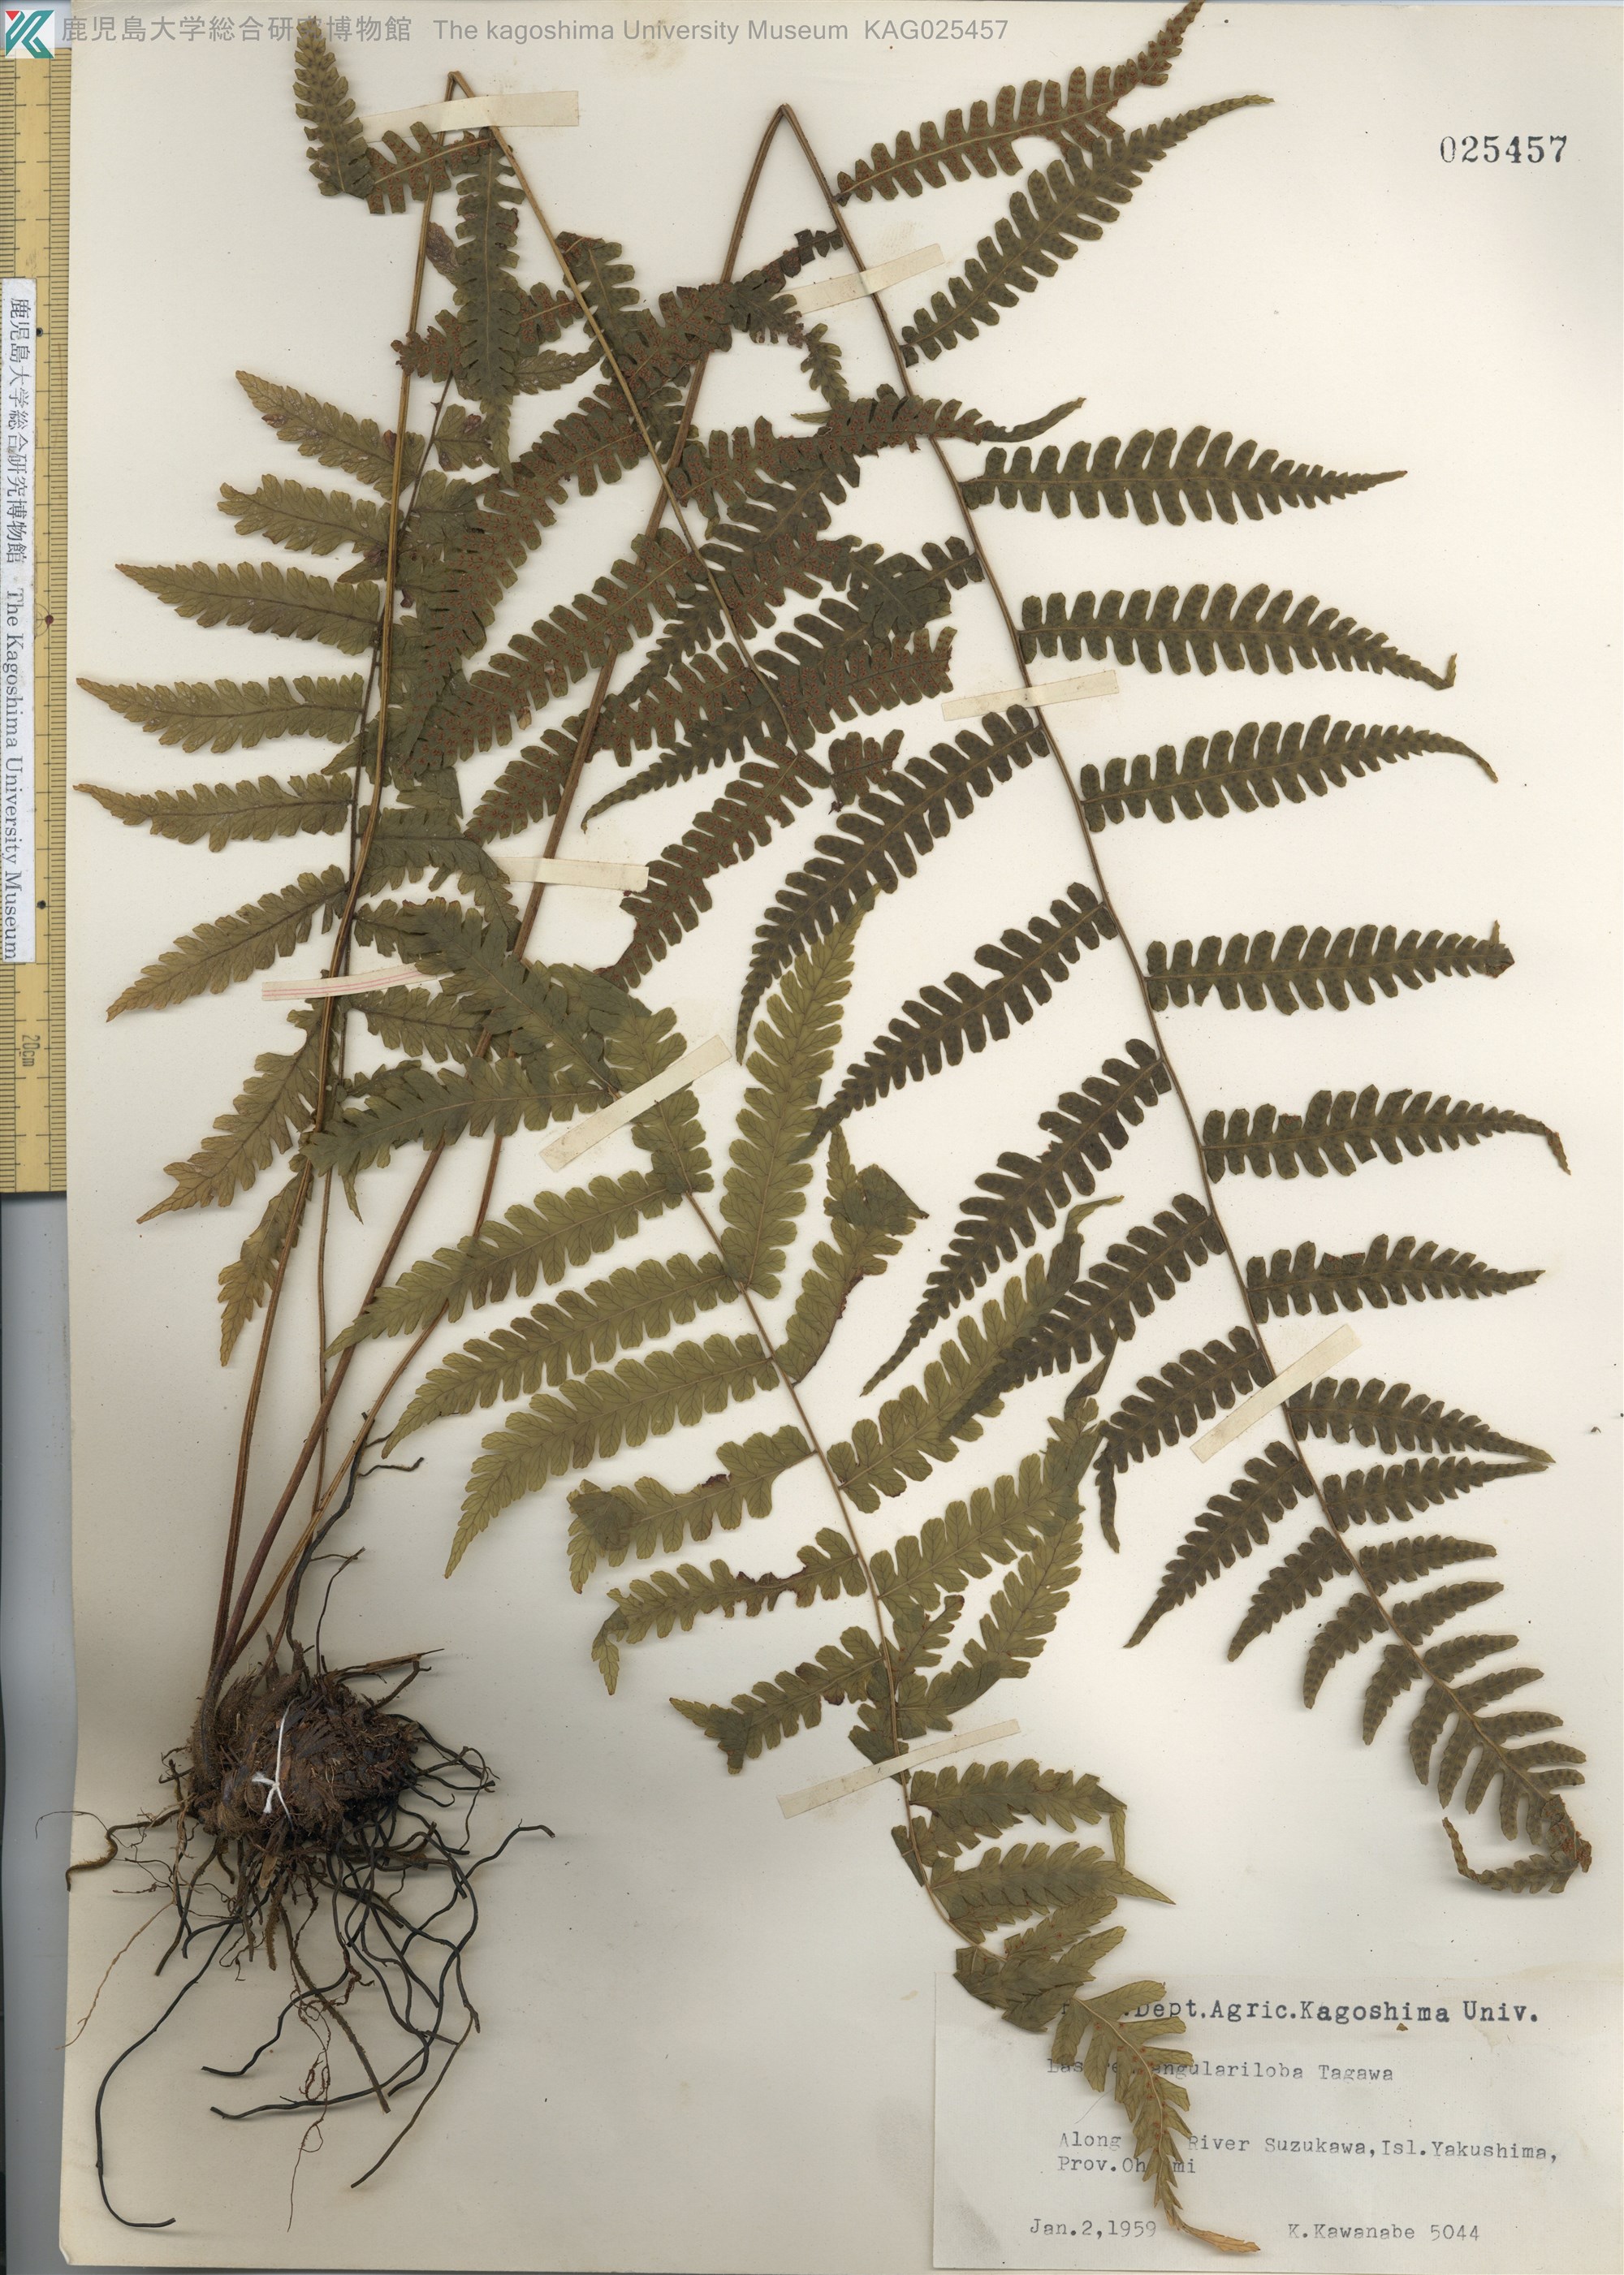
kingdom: Plantae
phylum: Tracheophyta
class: Polypodiopsida
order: Polypodiales
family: Thelypteridaceae
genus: Coryphopteris
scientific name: Coryphopteris hirsutipes
